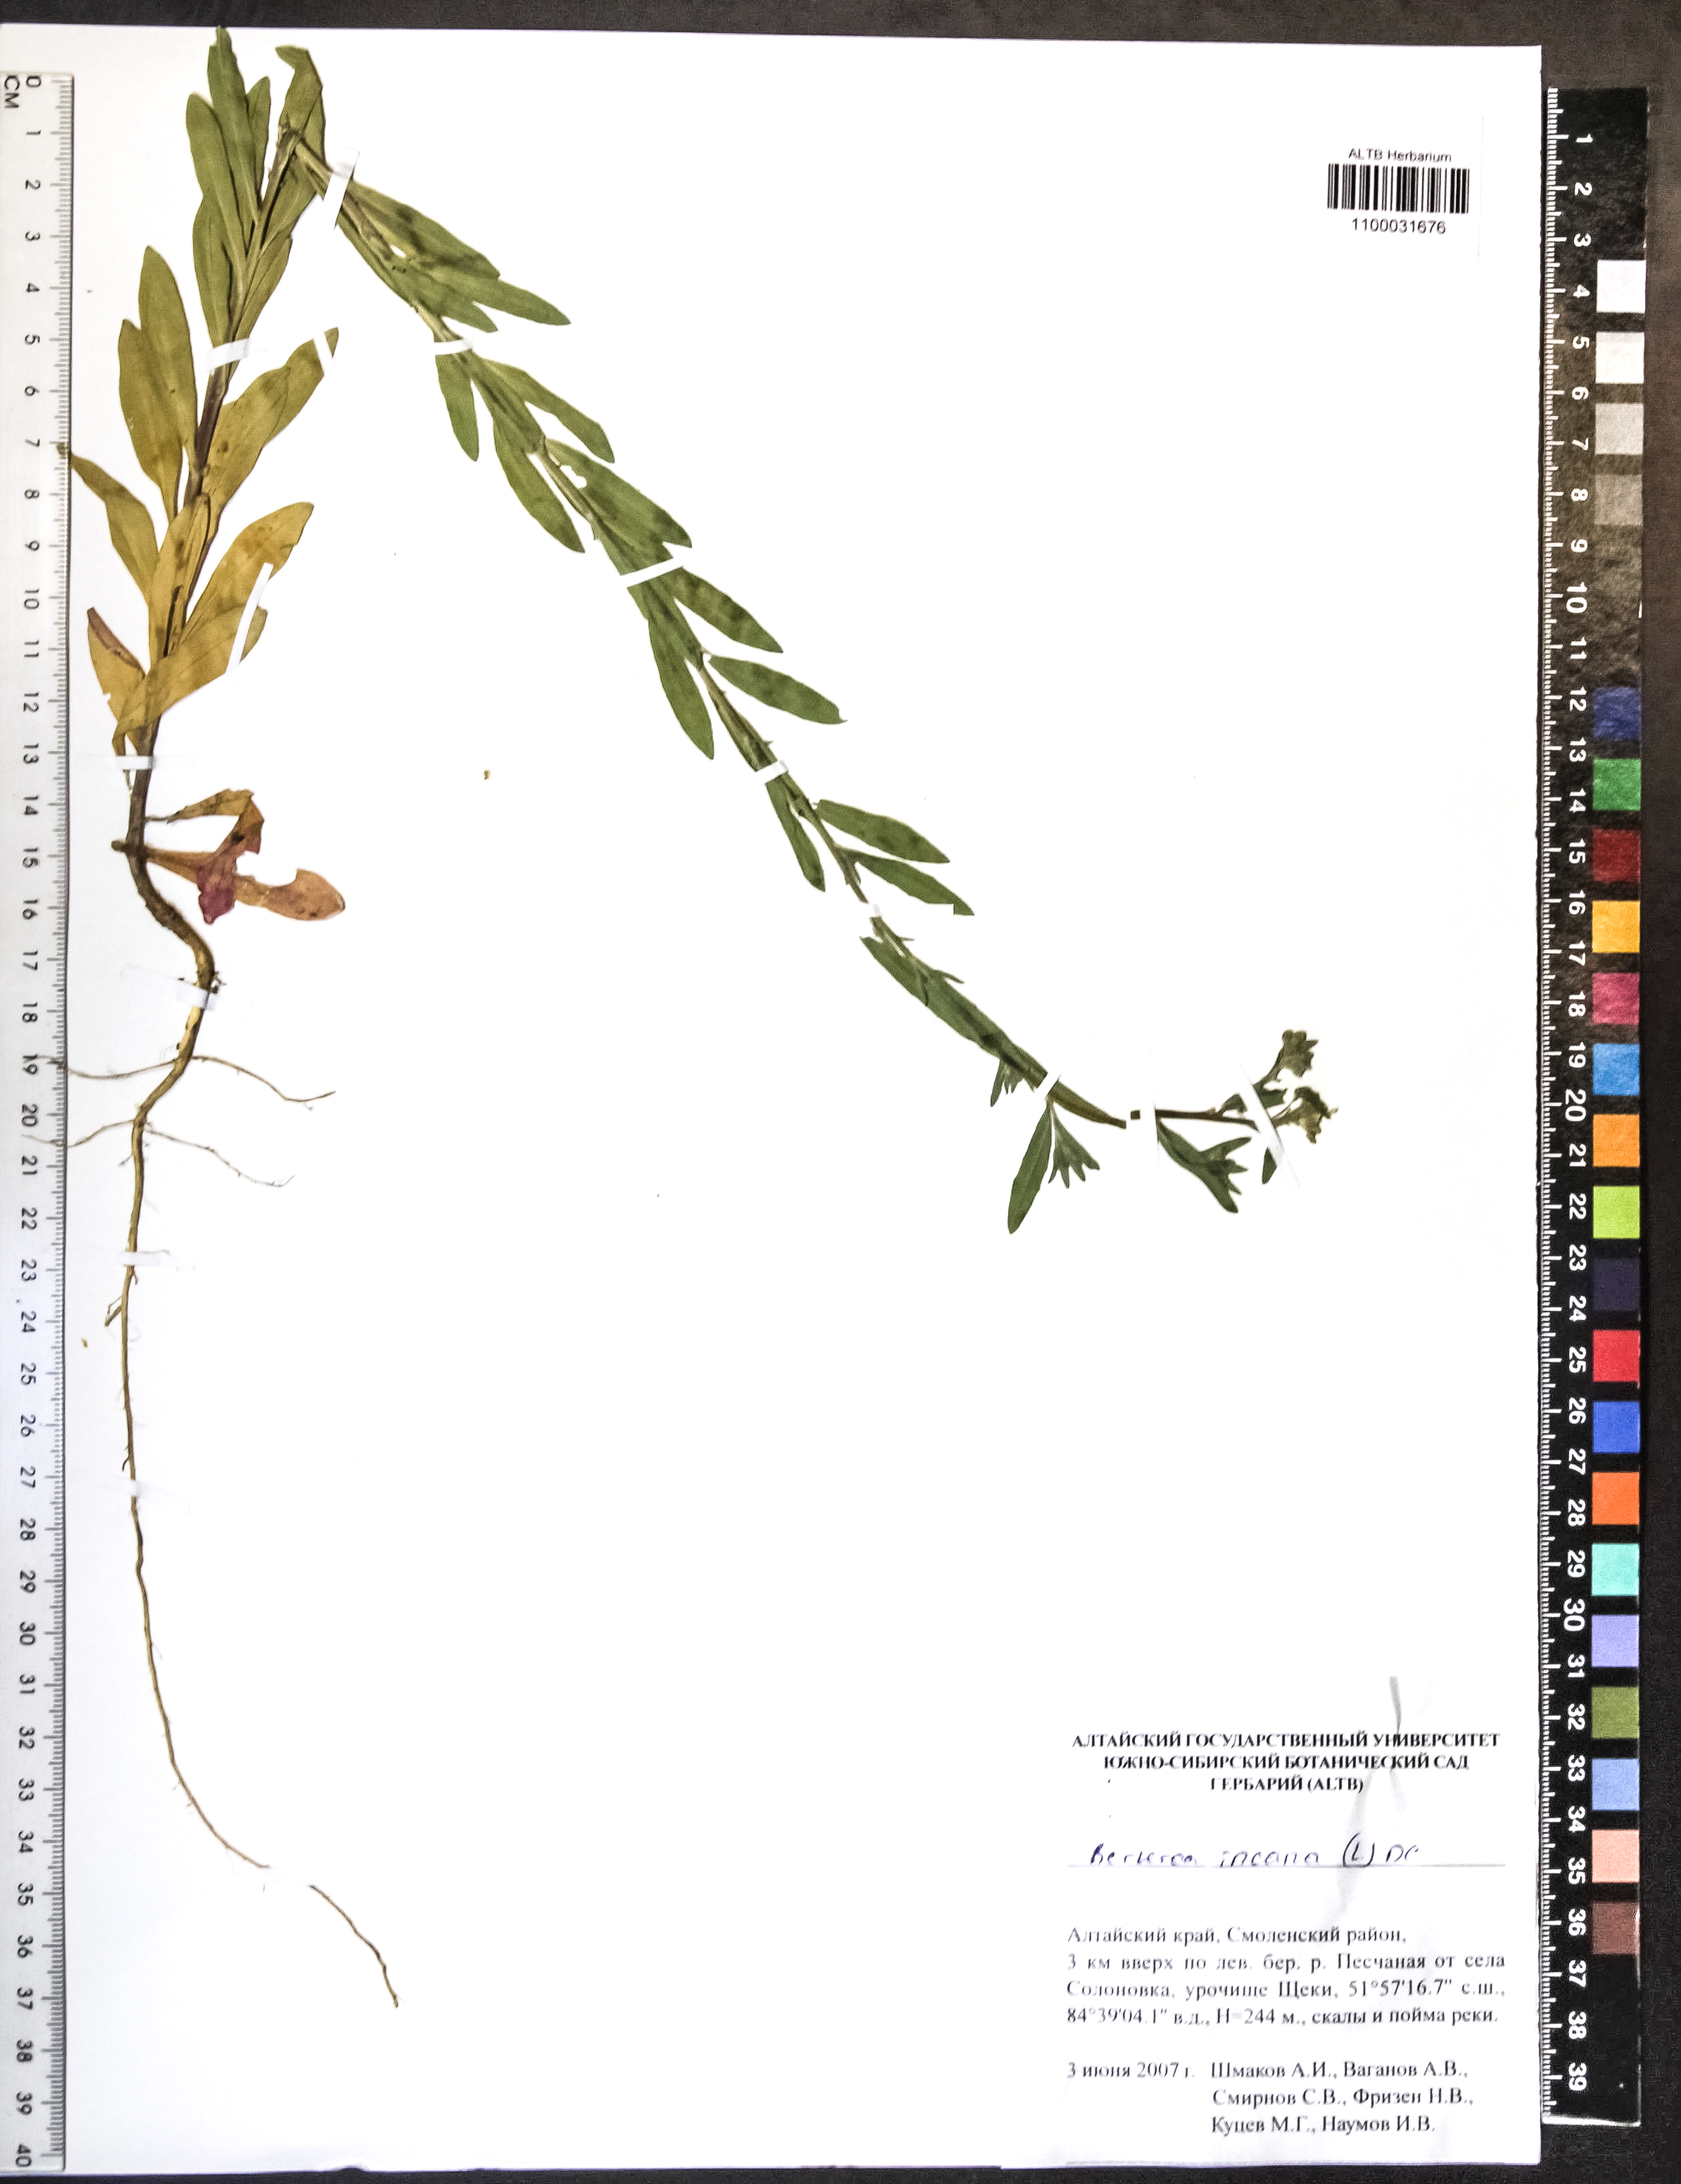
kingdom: Plantae
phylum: Tracheophyta
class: Magnoliopsida
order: Brassicales
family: Brassicaceae
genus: Berteroa
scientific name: Berteroa incana
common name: Hoary alison
